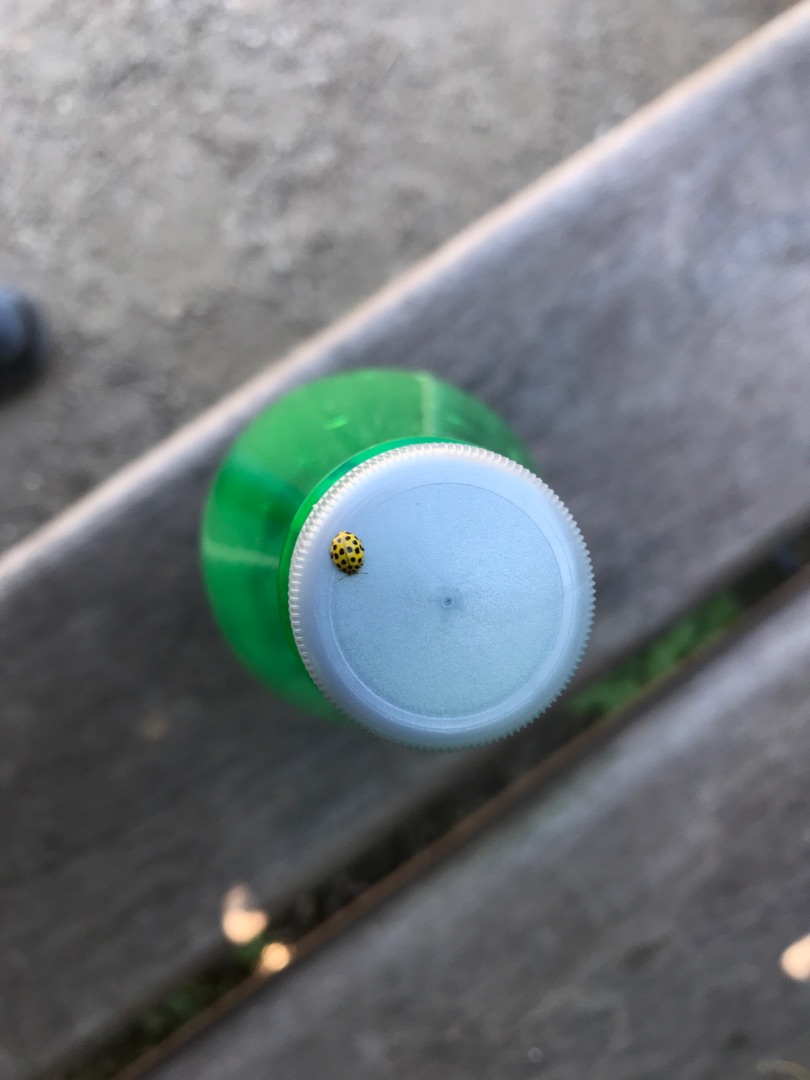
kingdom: Animalia
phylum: Arthropoda
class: Insecta
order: Coleoptera
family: Coccinellidae
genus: Psyllobora
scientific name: Psyllobora vigintiduopunctata
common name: Toogtyveplettet mariehøne
